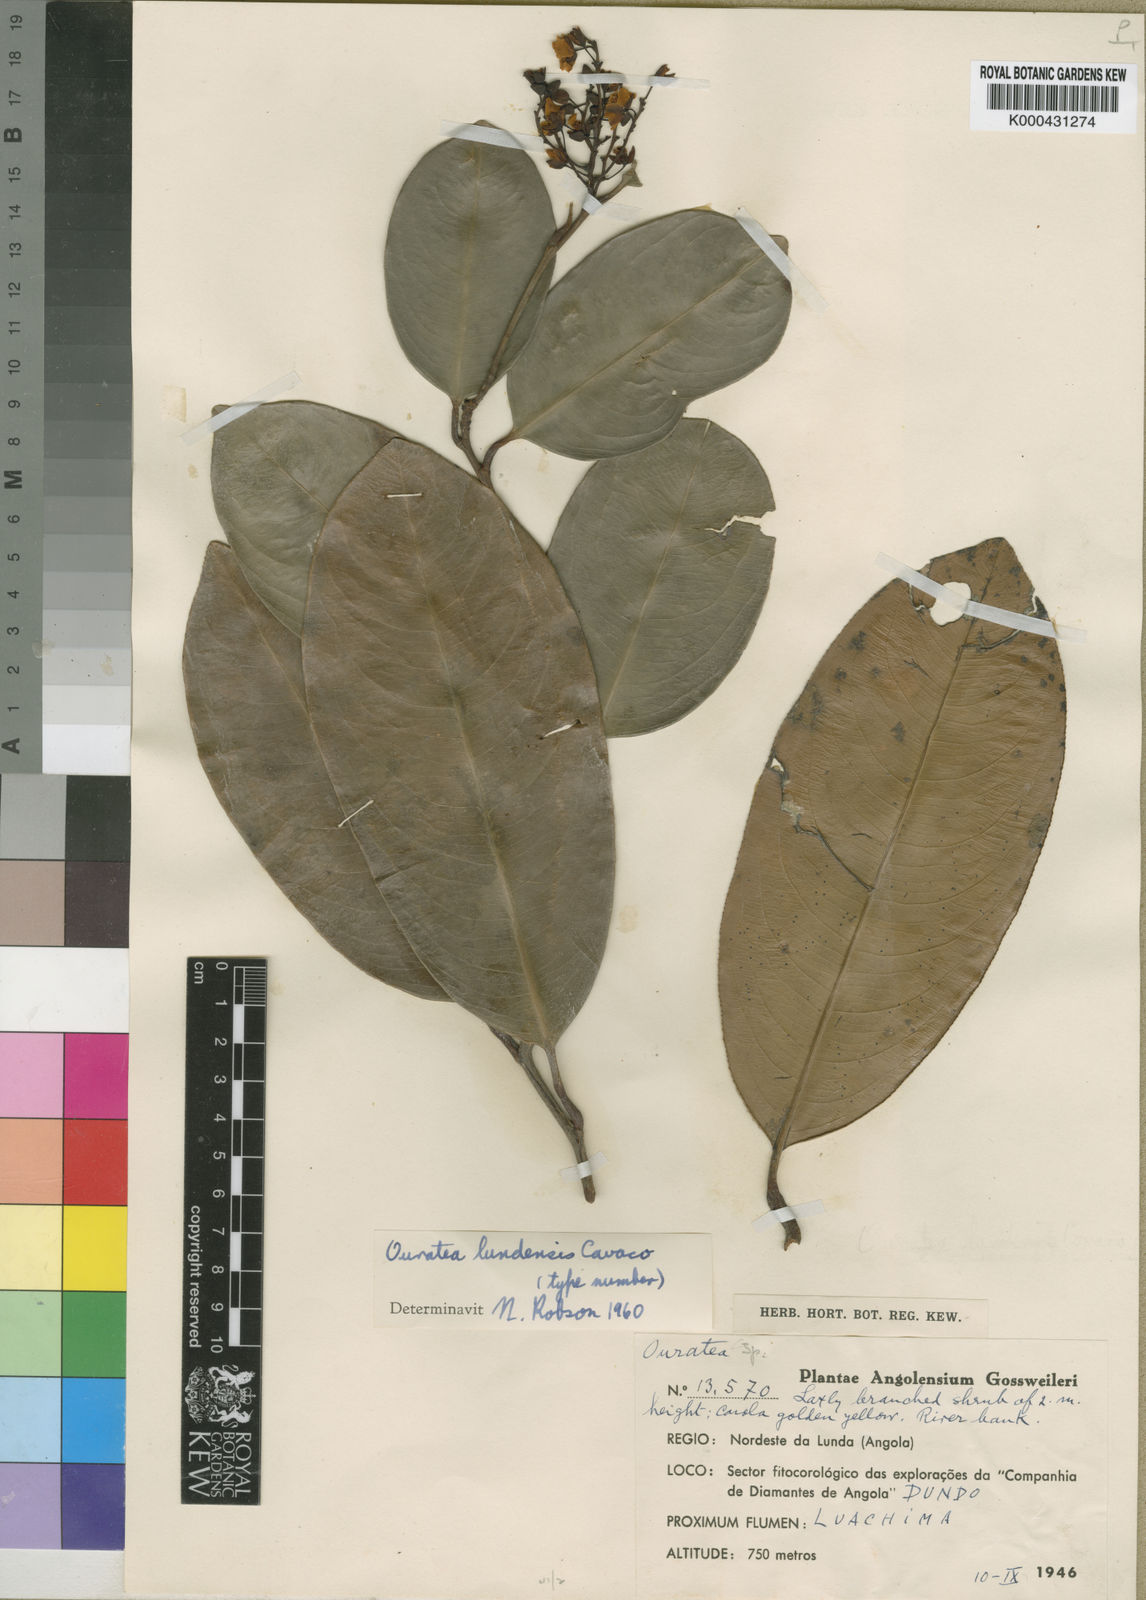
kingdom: Plantae
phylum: Tracheophyta
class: Magnoliopsida
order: Malpighiales
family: Ochnaceae
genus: Campylospermum
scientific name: Campylospermum
